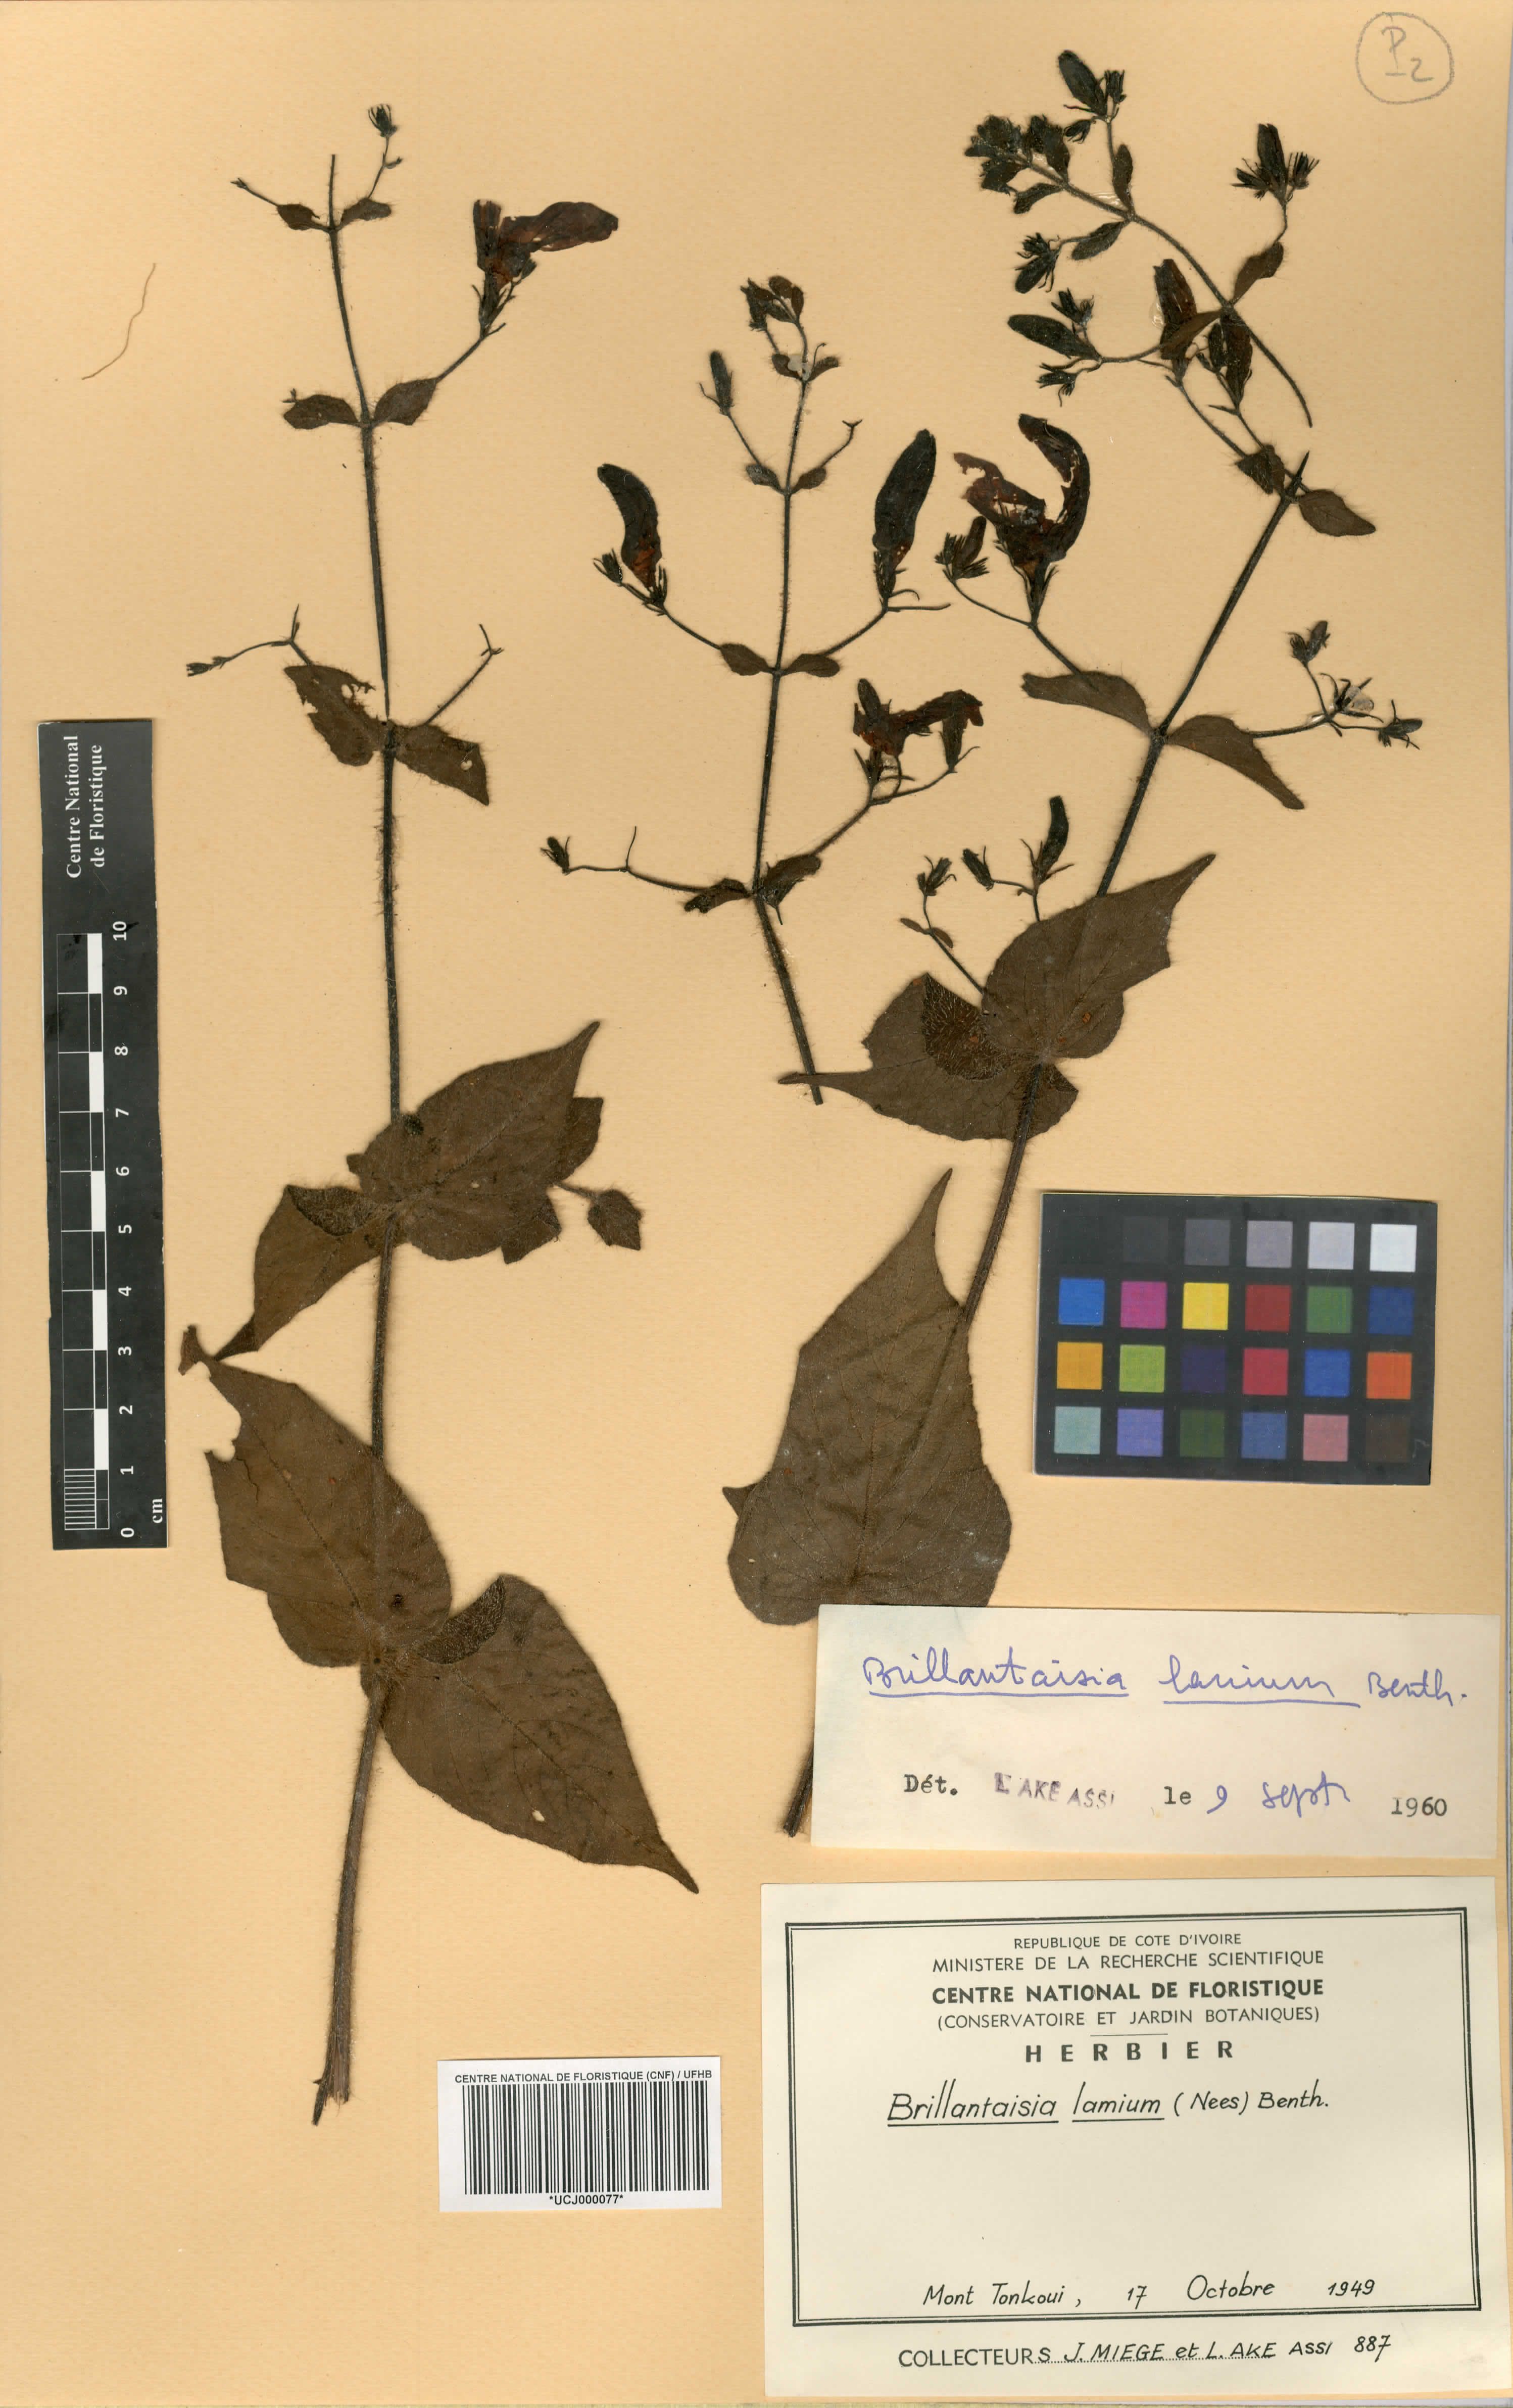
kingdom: Plantae
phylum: Tracheophyta
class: Magnoliopsida
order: Lamiales
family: Acanthaceae
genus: Brillantaisia
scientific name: Brillantaisia lamium
